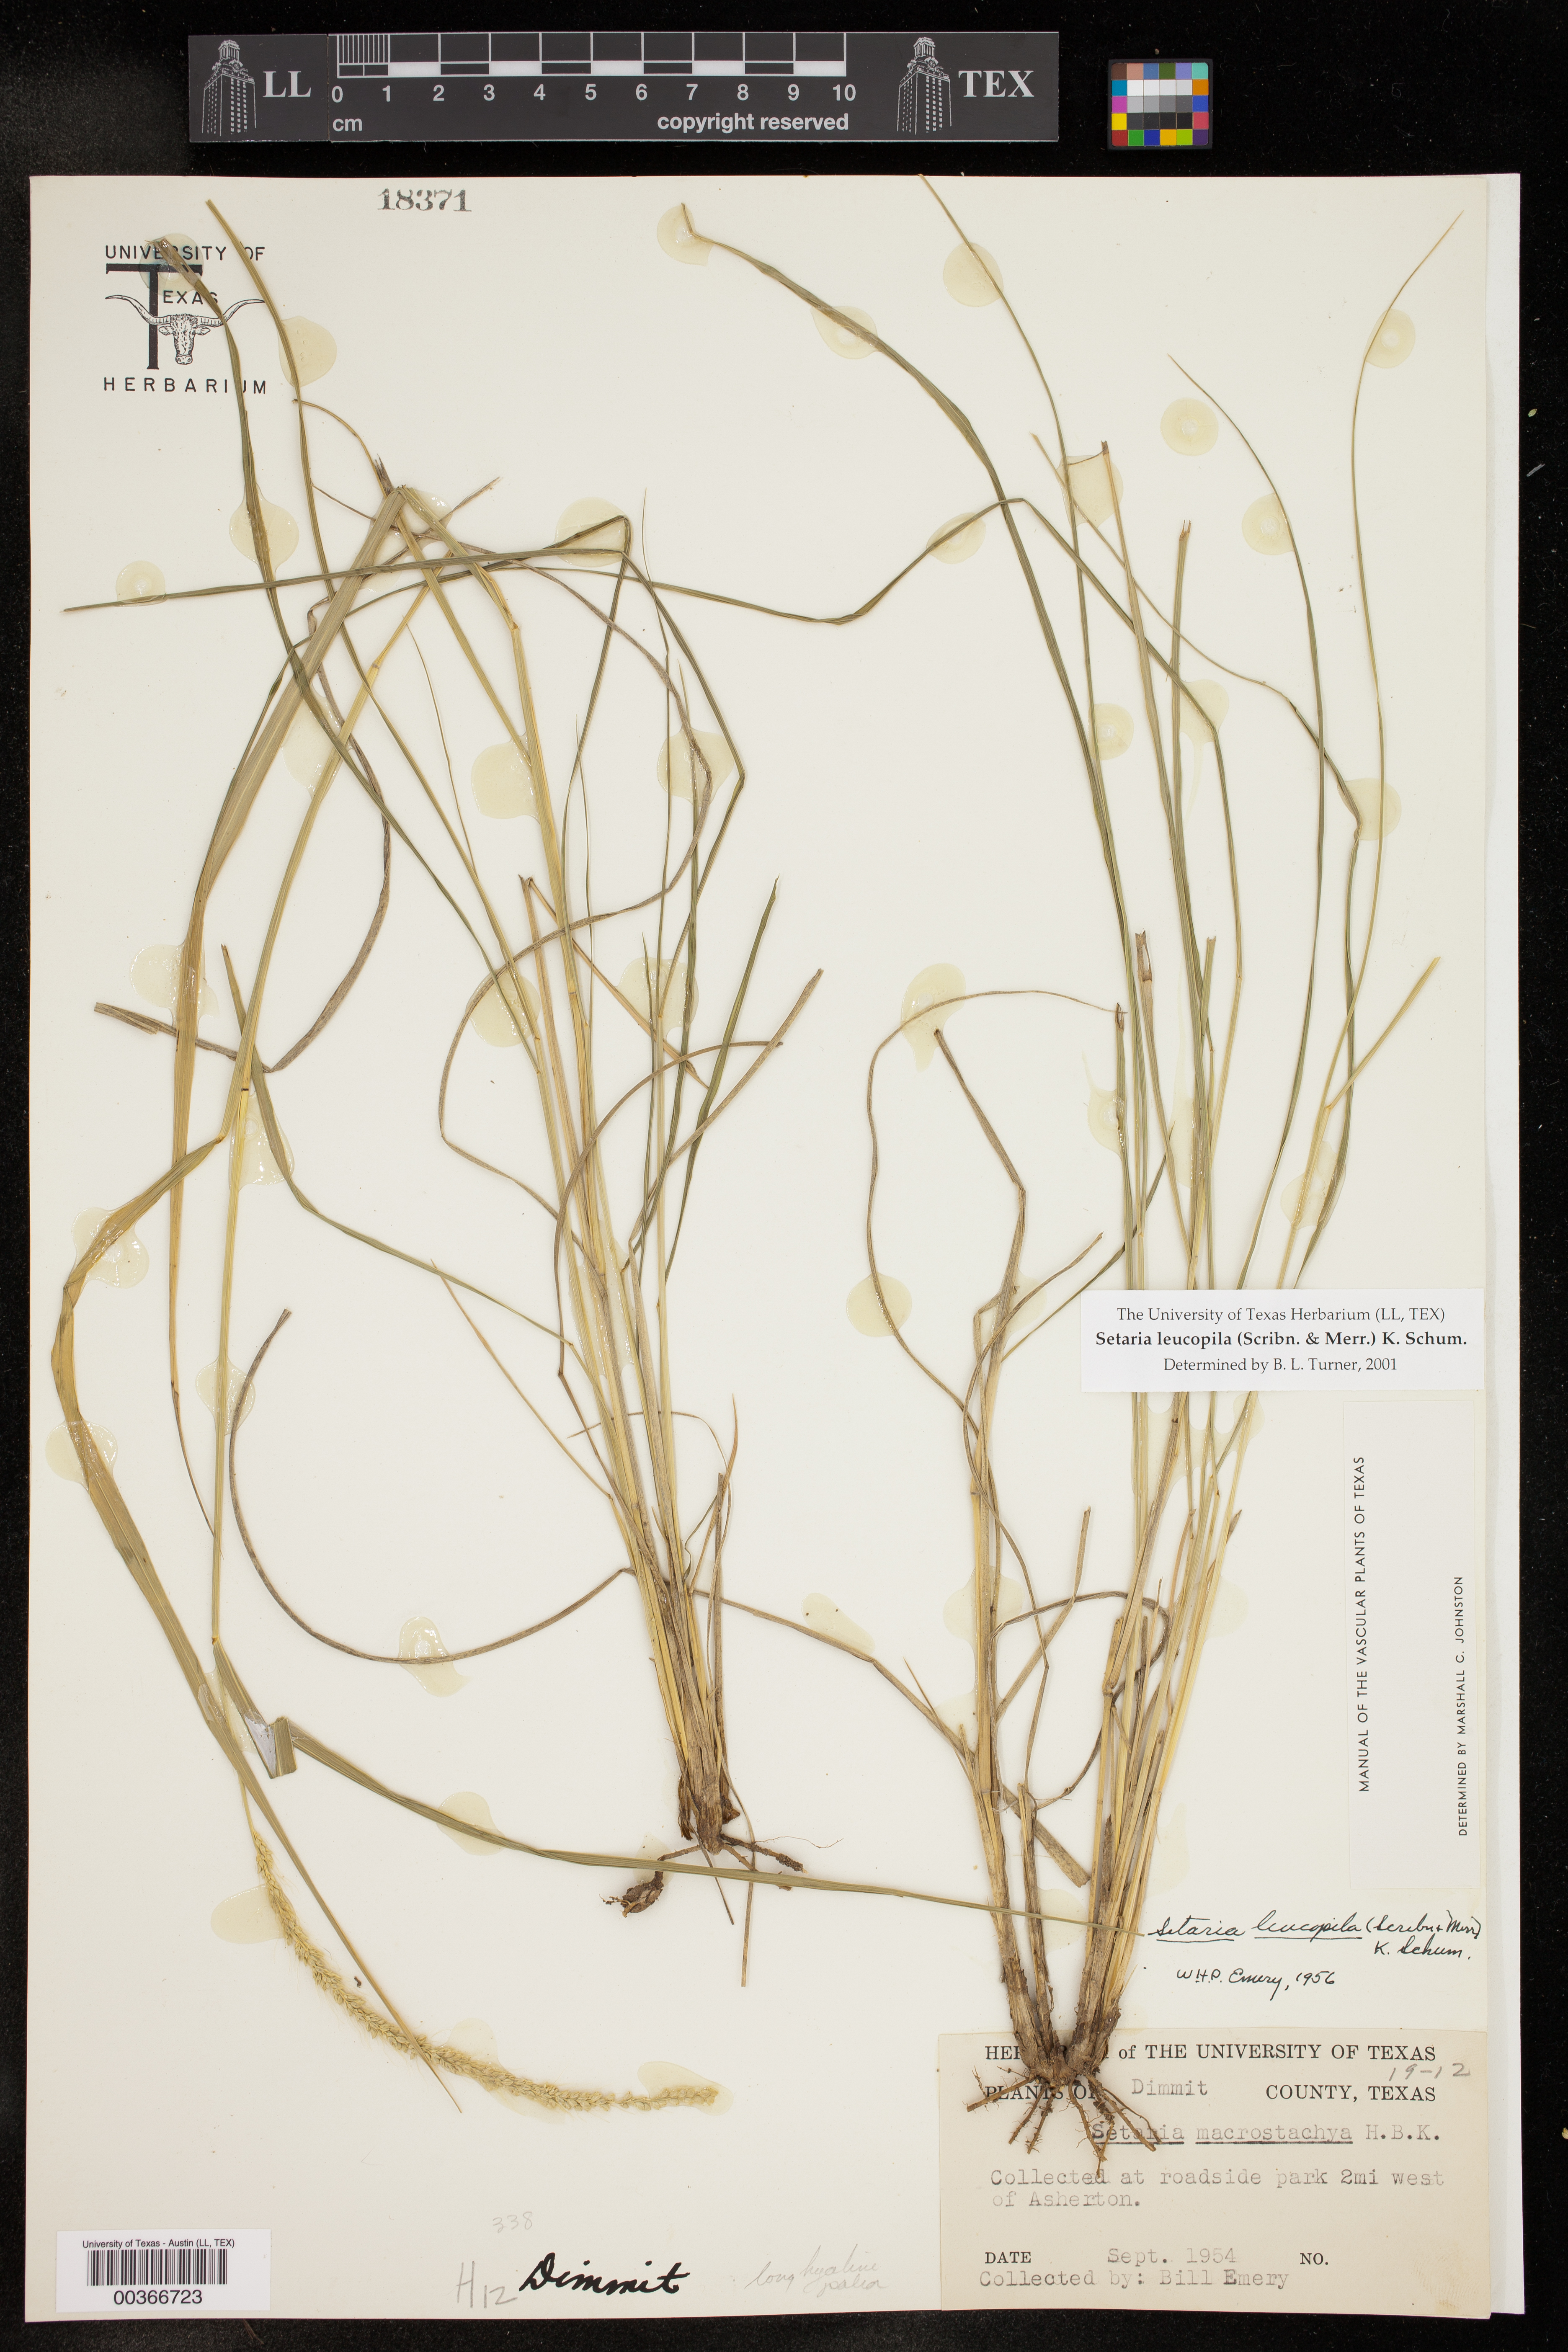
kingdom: Plantae
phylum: Tracheophyta
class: Liliopsida
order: Poales
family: Poaceae
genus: Setaria
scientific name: Setaria leucopila
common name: Plains bristle grass
